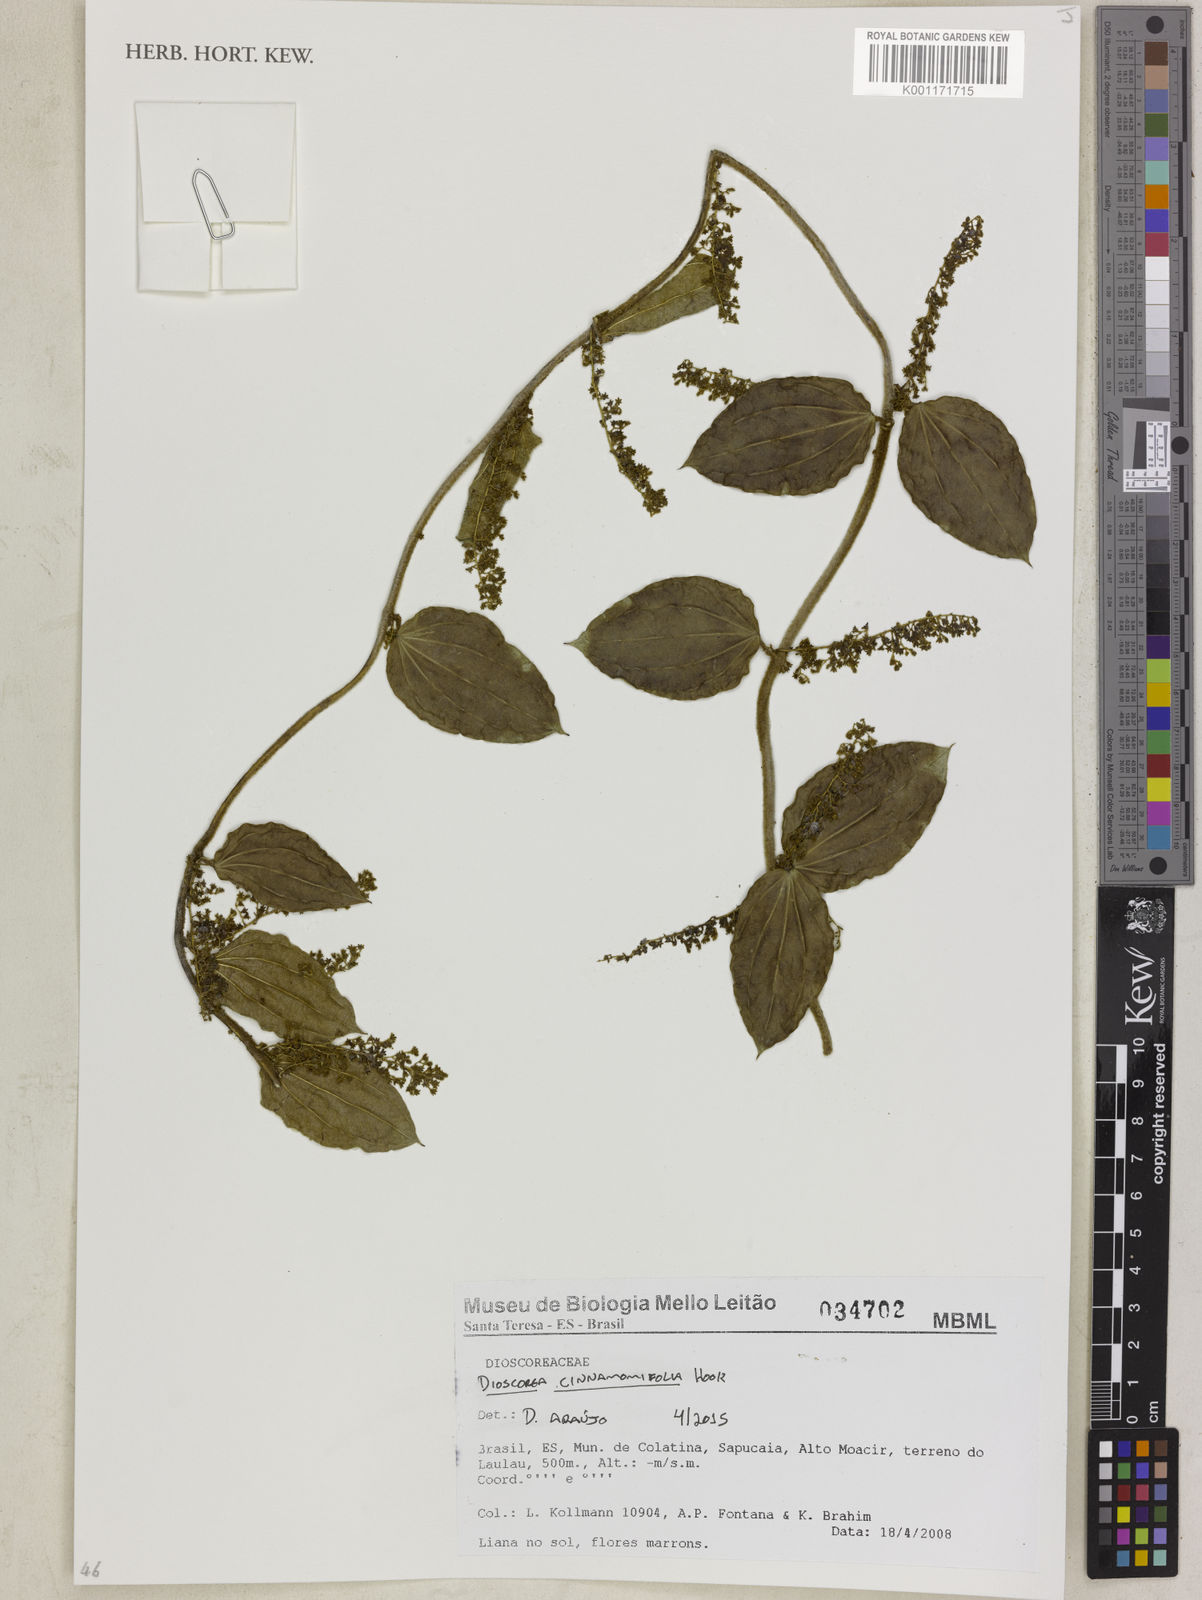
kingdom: Plantae
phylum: Tracheophyta
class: Liliopsida
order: Dioscoreales
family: Dioscoreaceae
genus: Dioscorea
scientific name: Dioscorea cinnamomifolia
